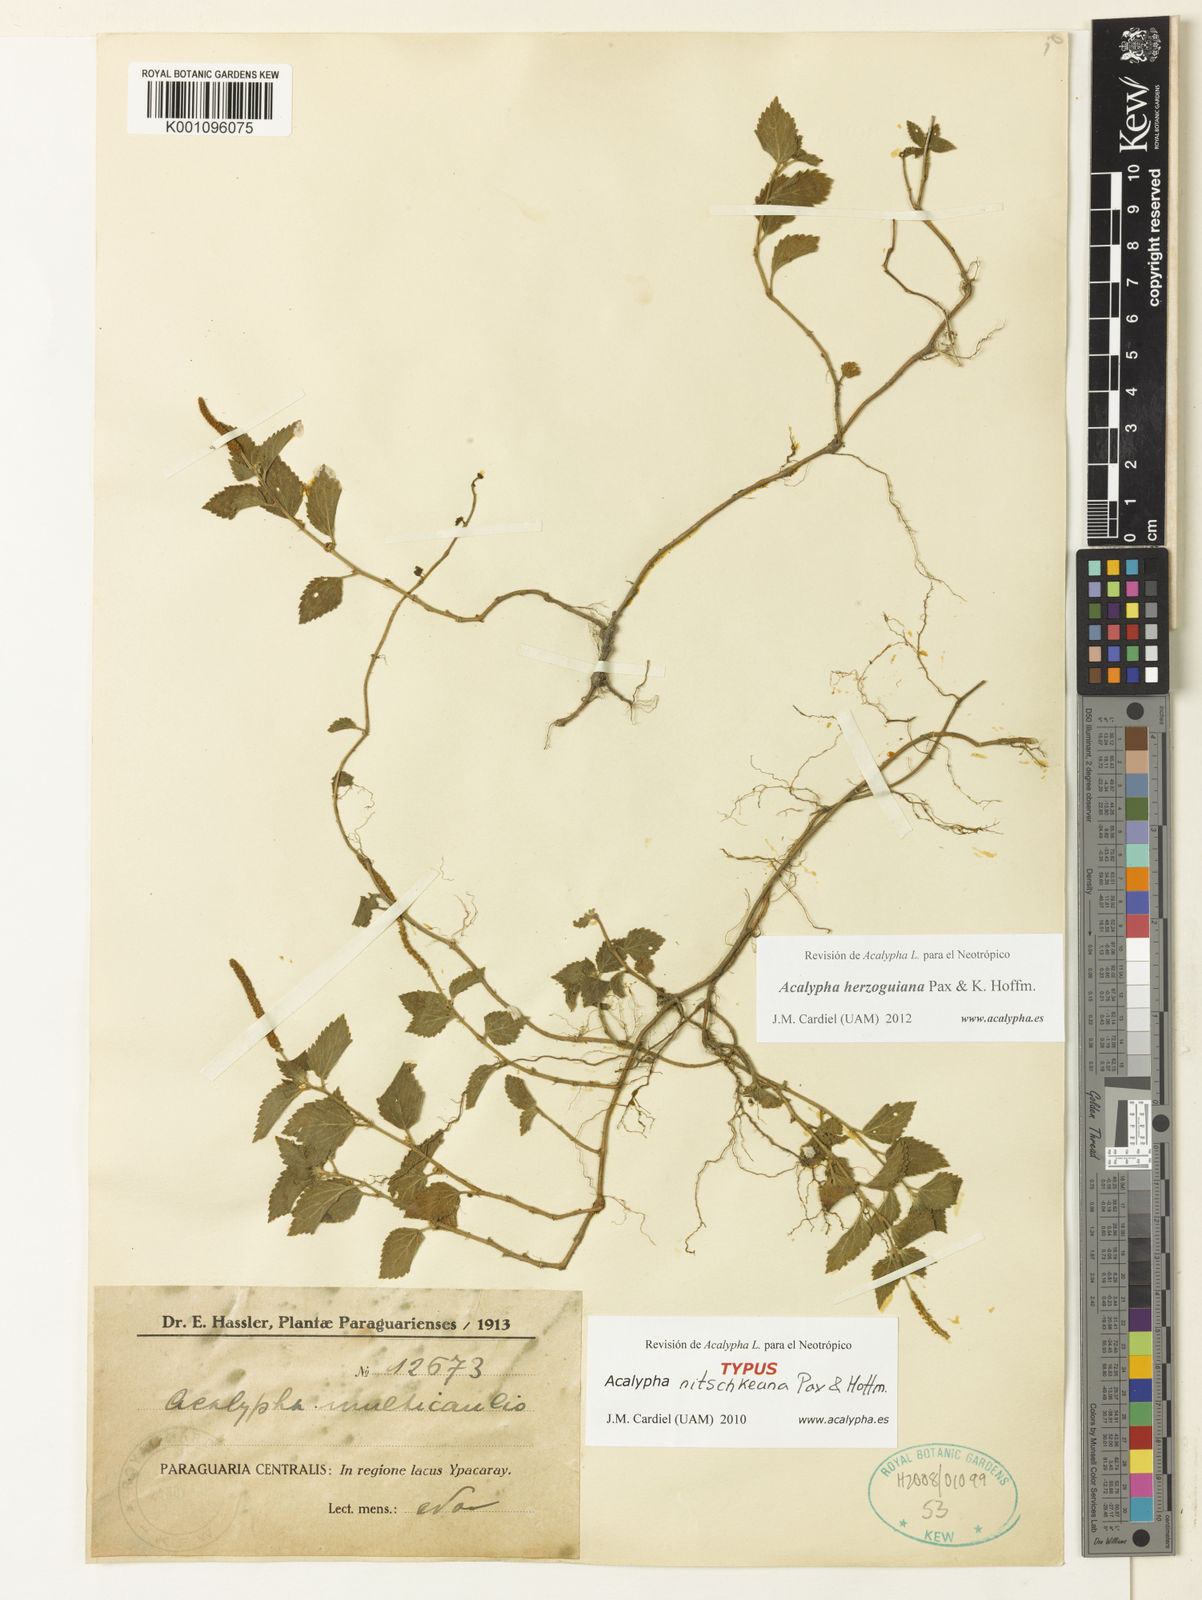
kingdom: Plantae
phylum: Tracheophyta
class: Magnoliopsida
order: Malpighiales
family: Euphorbiaceae
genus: Acalypha
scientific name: Acalypha herzogiana
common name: Dwarf-cattail
